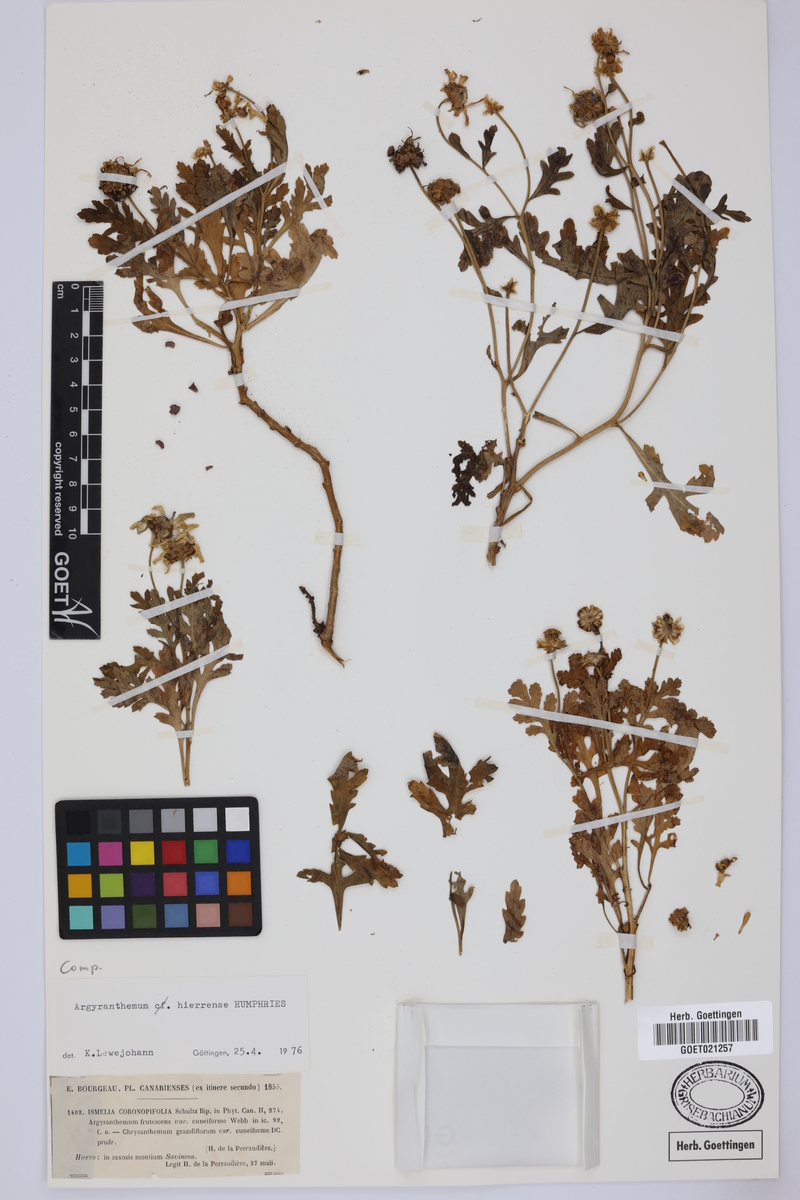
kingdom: Plantae
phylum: Tracheophyta
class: Magnoliopsida
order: Asterales
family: Asteraceae
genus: Argyranthemum
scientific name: Argyranthemum hierrense
